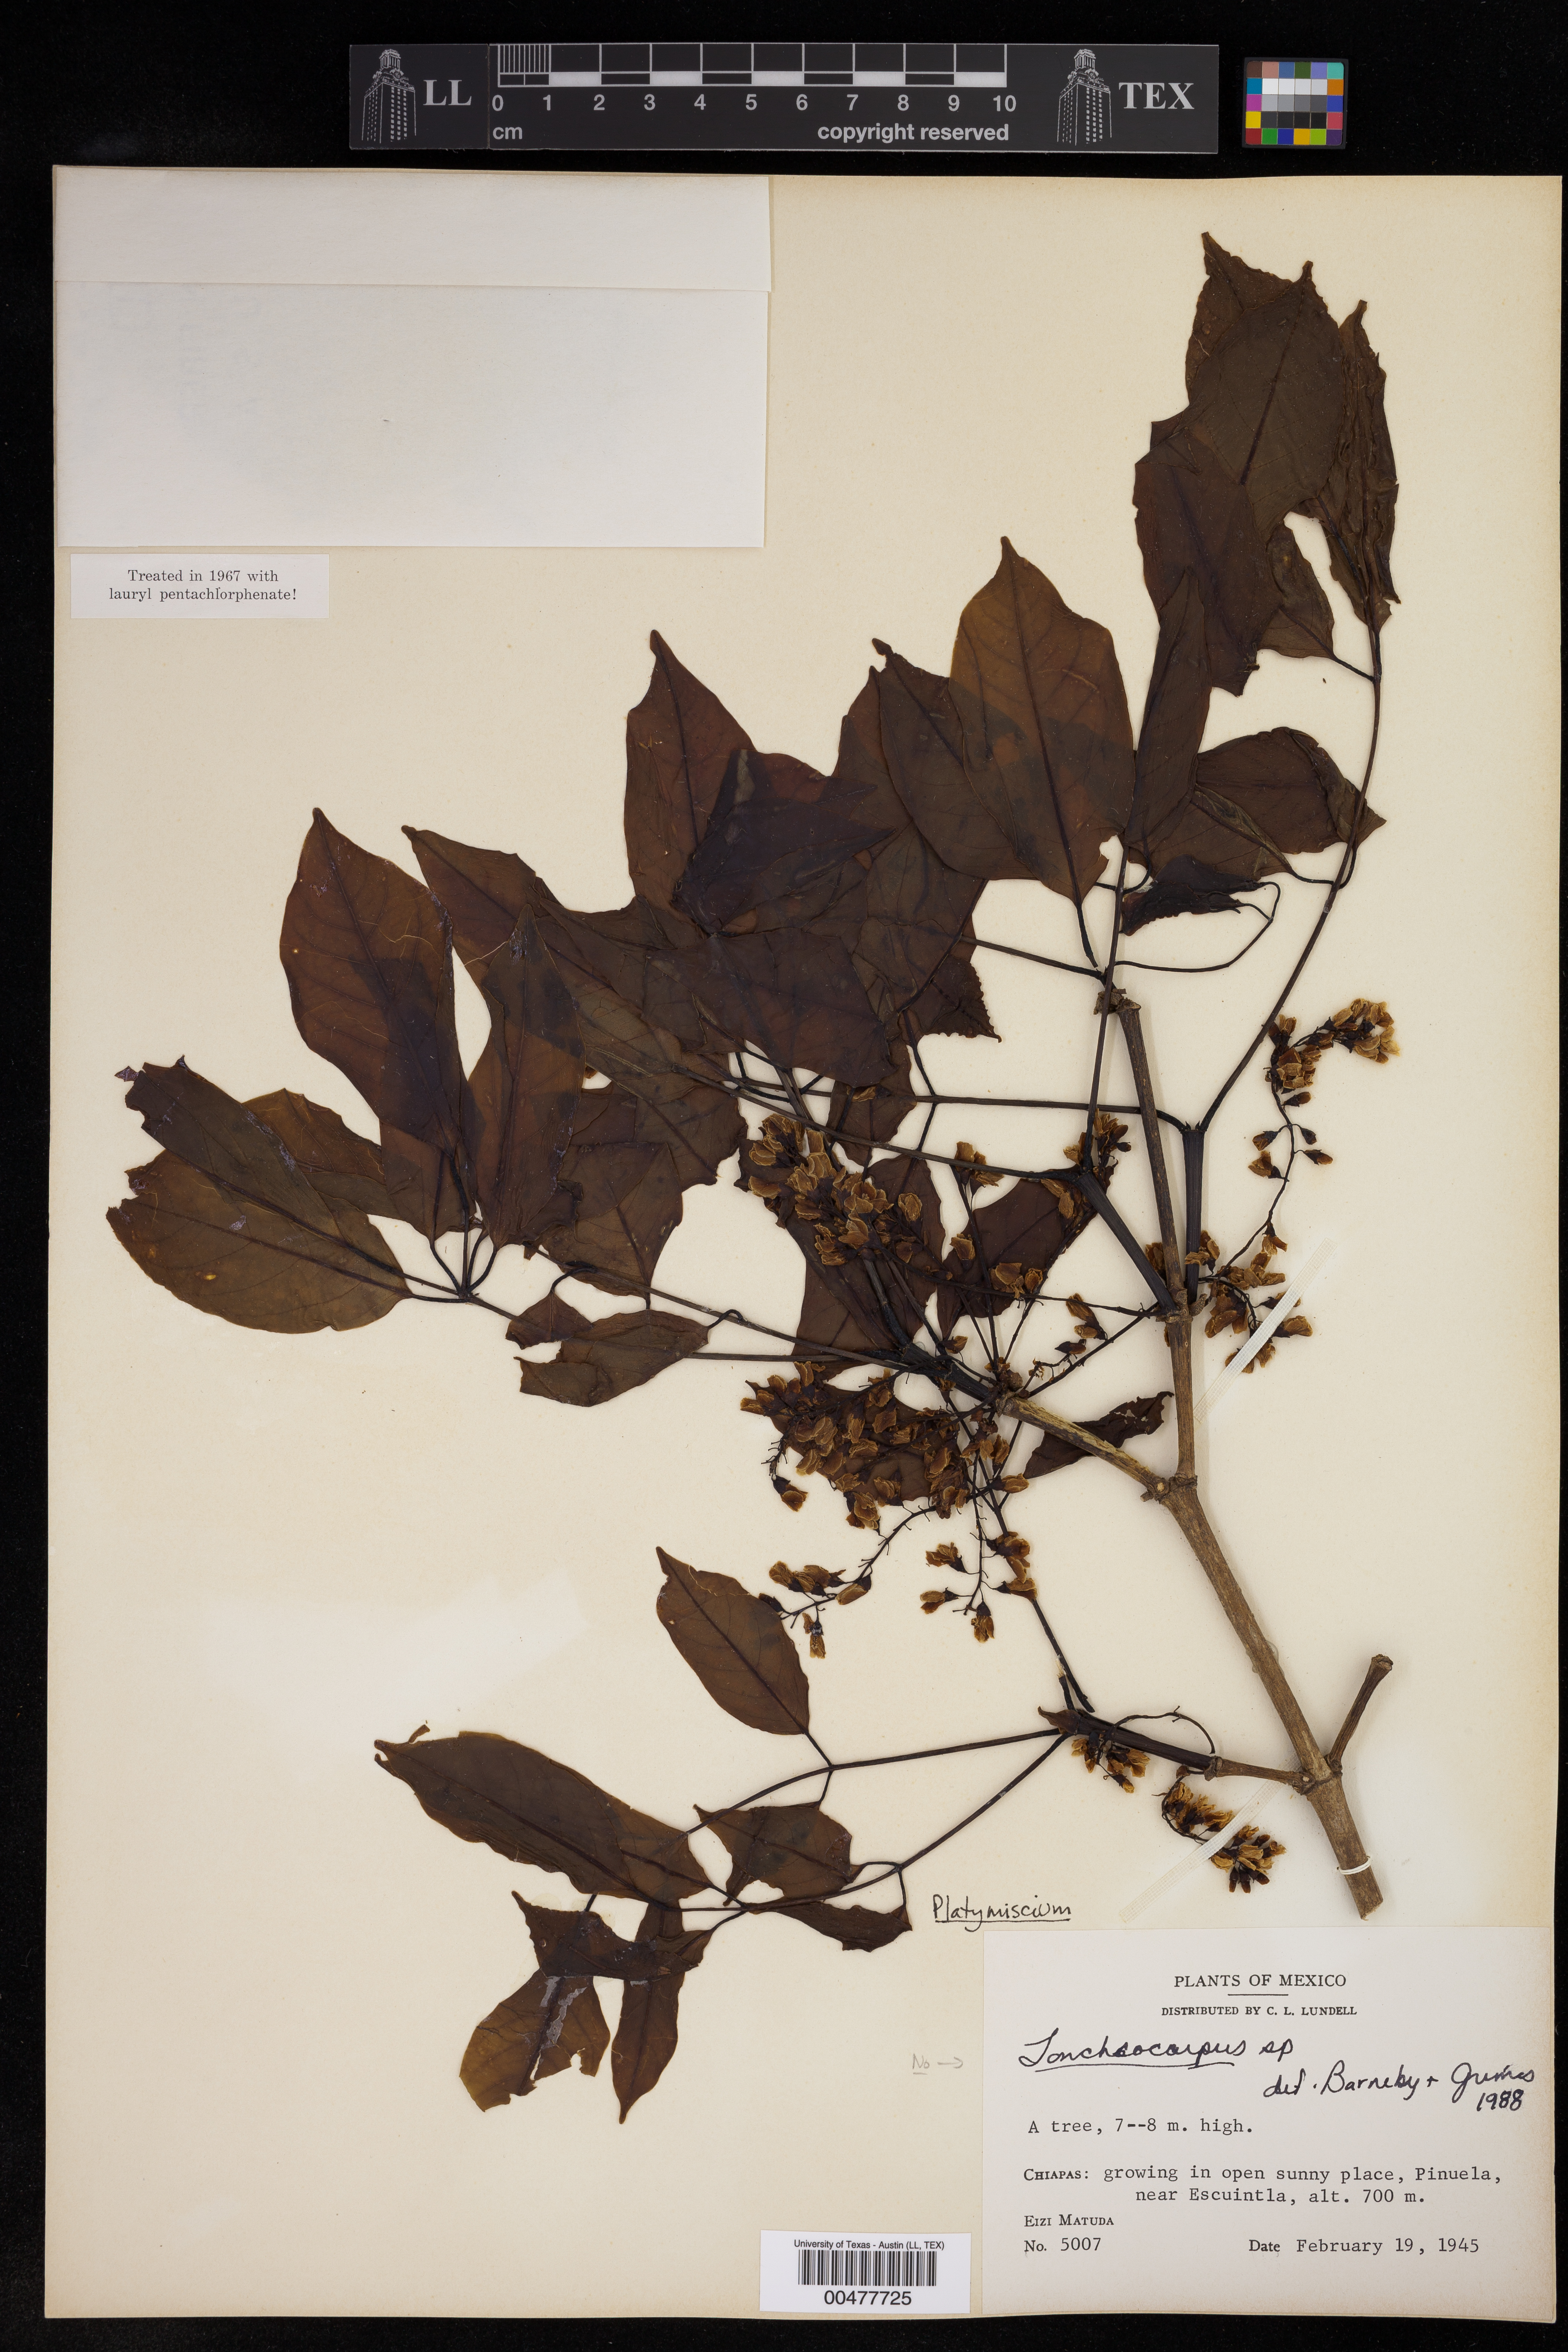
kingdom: Plantae
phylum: Tracheophyta
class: Magnoliopsida
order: Fabales
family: Fabaceae
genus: Platymiscium
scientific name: Platymiscium
